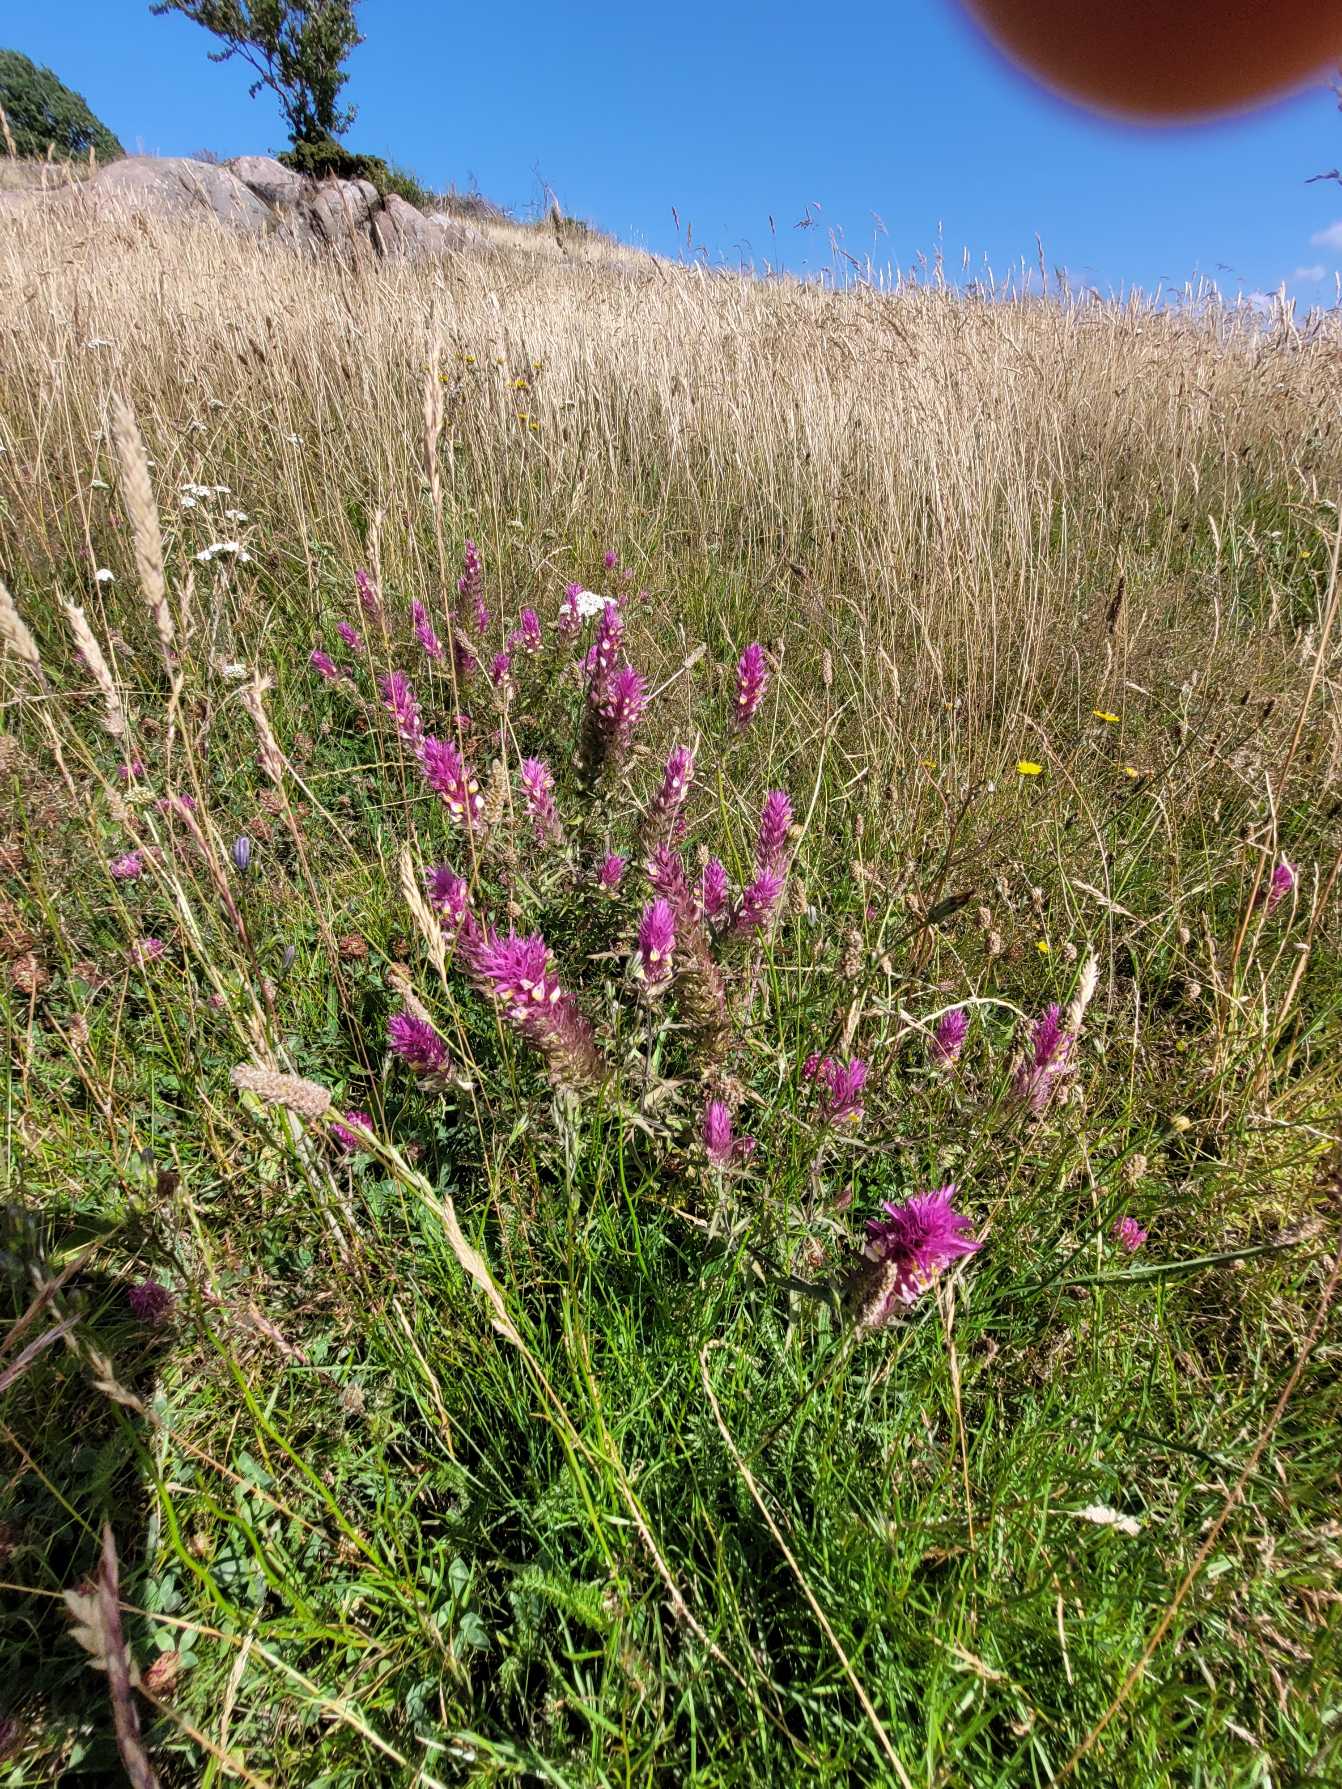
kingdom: Plantae
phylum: Tracheophyta
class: Magnoliopsida
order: Lamiales
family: Orobanchaceae
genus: Melampyrum
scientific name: Melampyrum arvense
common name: Ager-kohvede
